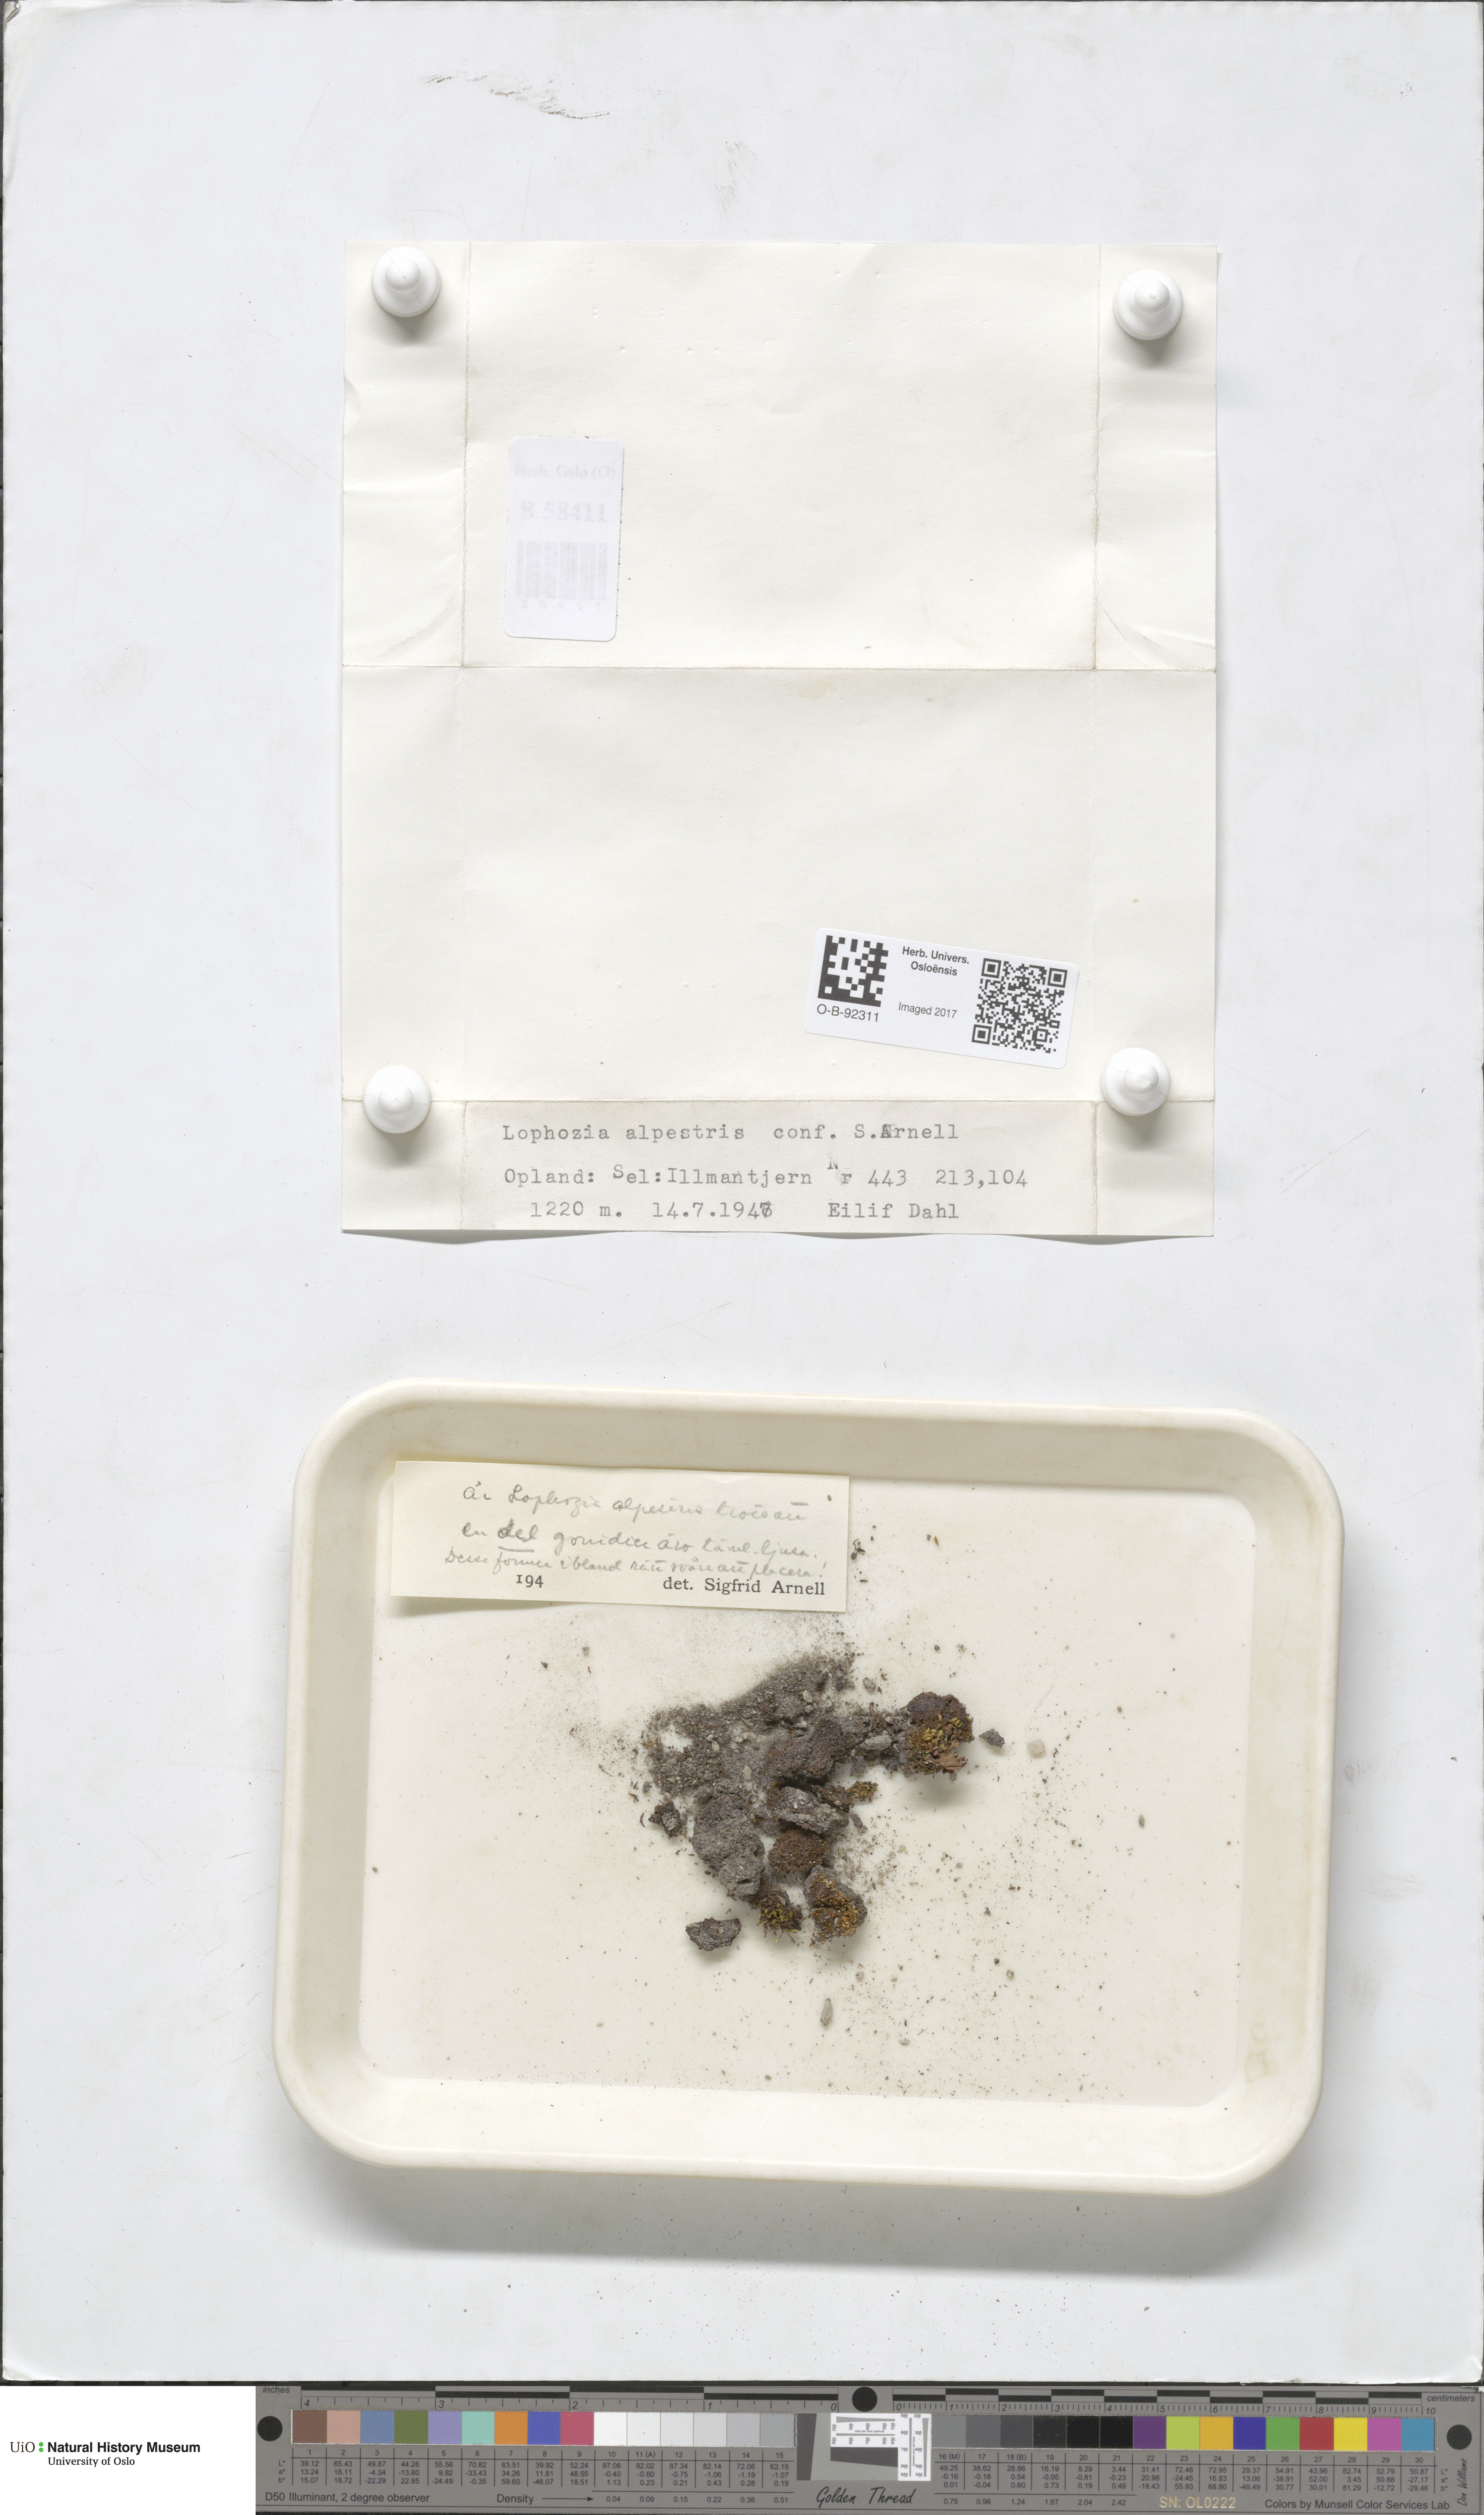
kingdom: Plantae
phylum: Marchantiophyta
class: Jungermanniopsida
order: Jungermanniales
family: Anastrophyllaceae
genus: Barbilophozia
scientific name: Barbilophozia sudetica
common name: Hill notchwort
